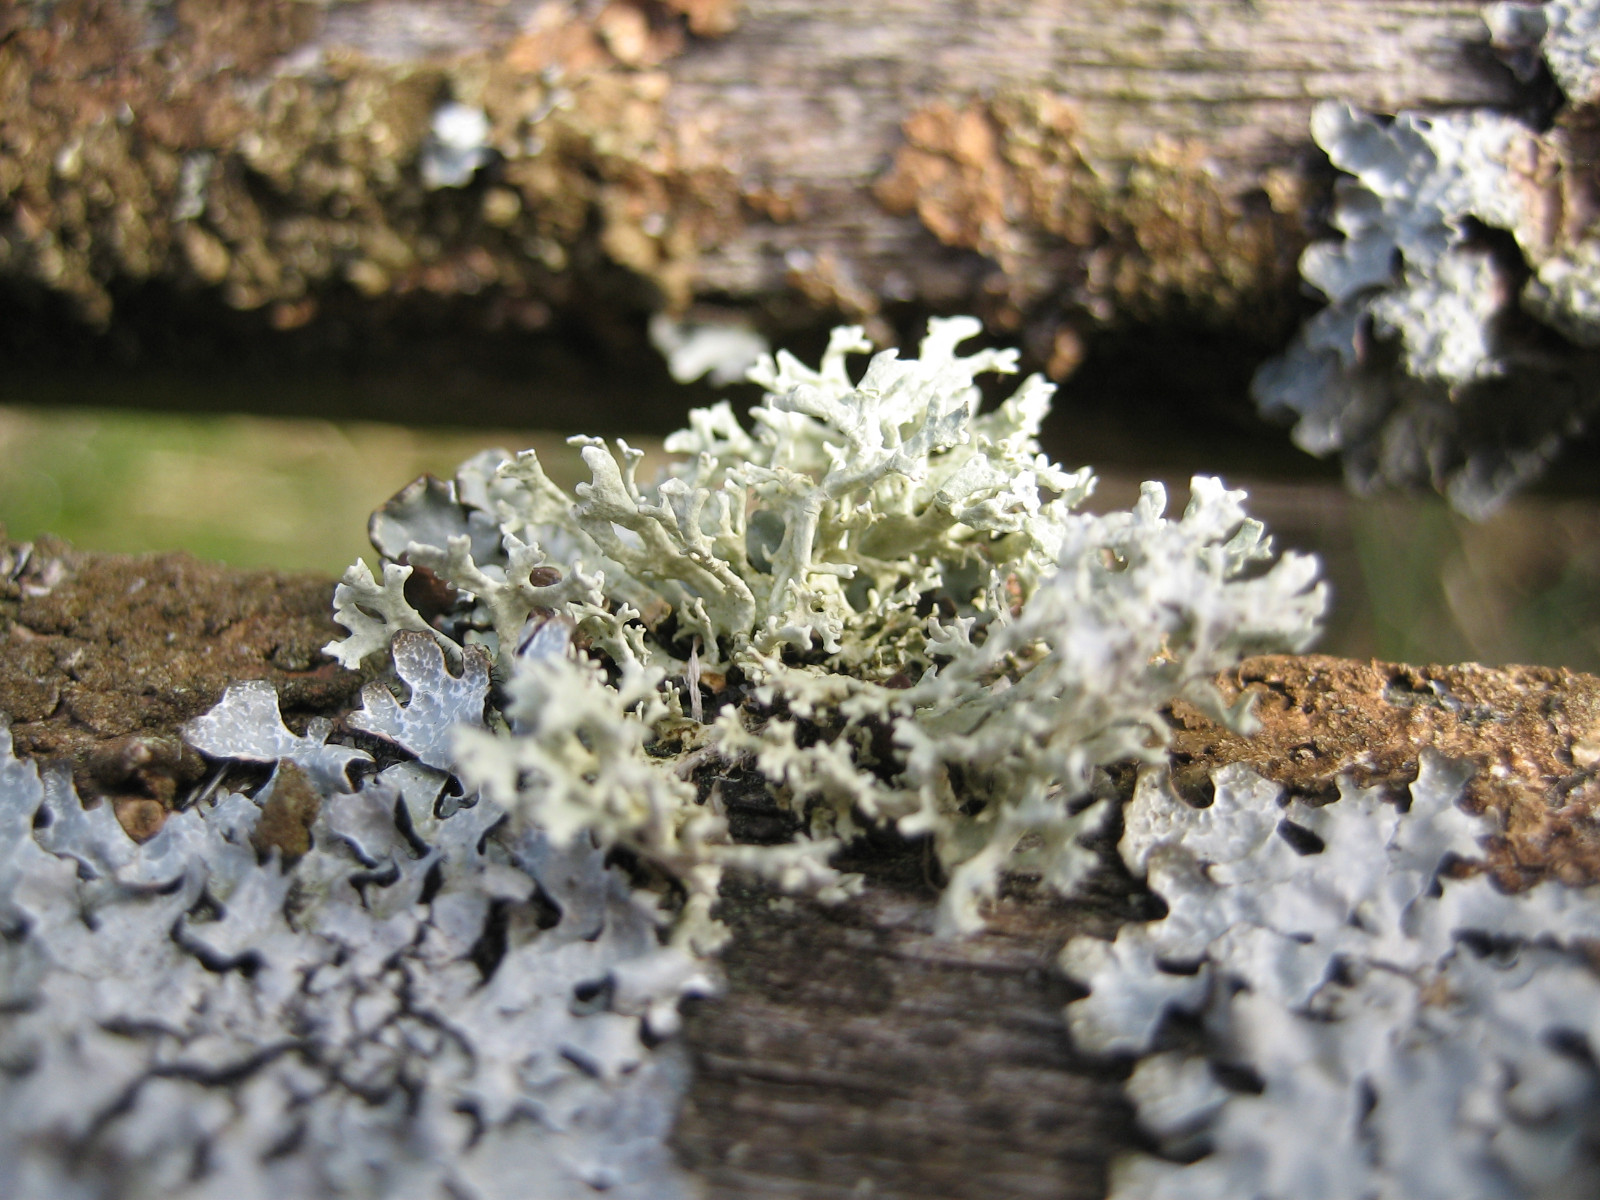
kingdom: Fungi
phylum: Ascomycota
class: Lecanoromycetes
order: Lecanorales
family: Parmeliaceae
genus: Evernia
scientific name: Evernia prunastri
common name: almindelig slåenlav
